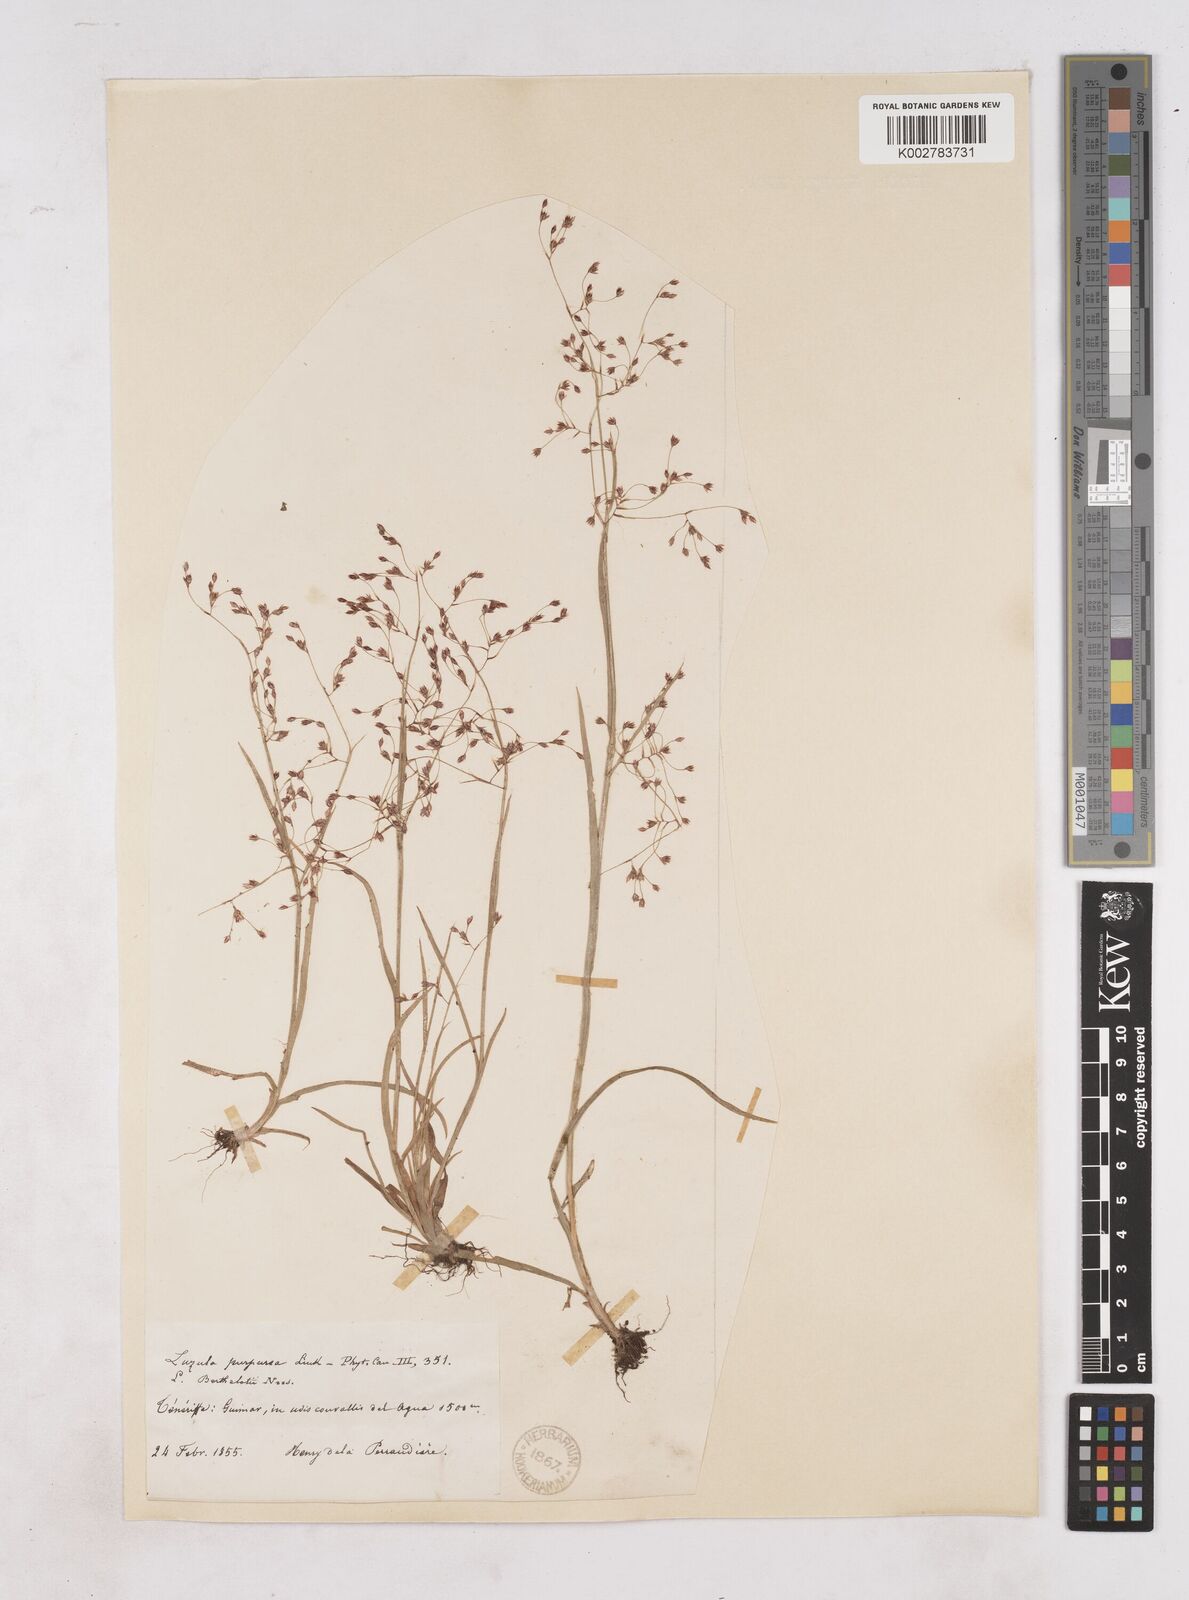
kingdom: Plantae
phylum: Tracheophyta
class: Liliopsida
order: Poales
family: Juncaceae
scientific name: Juncaceae
